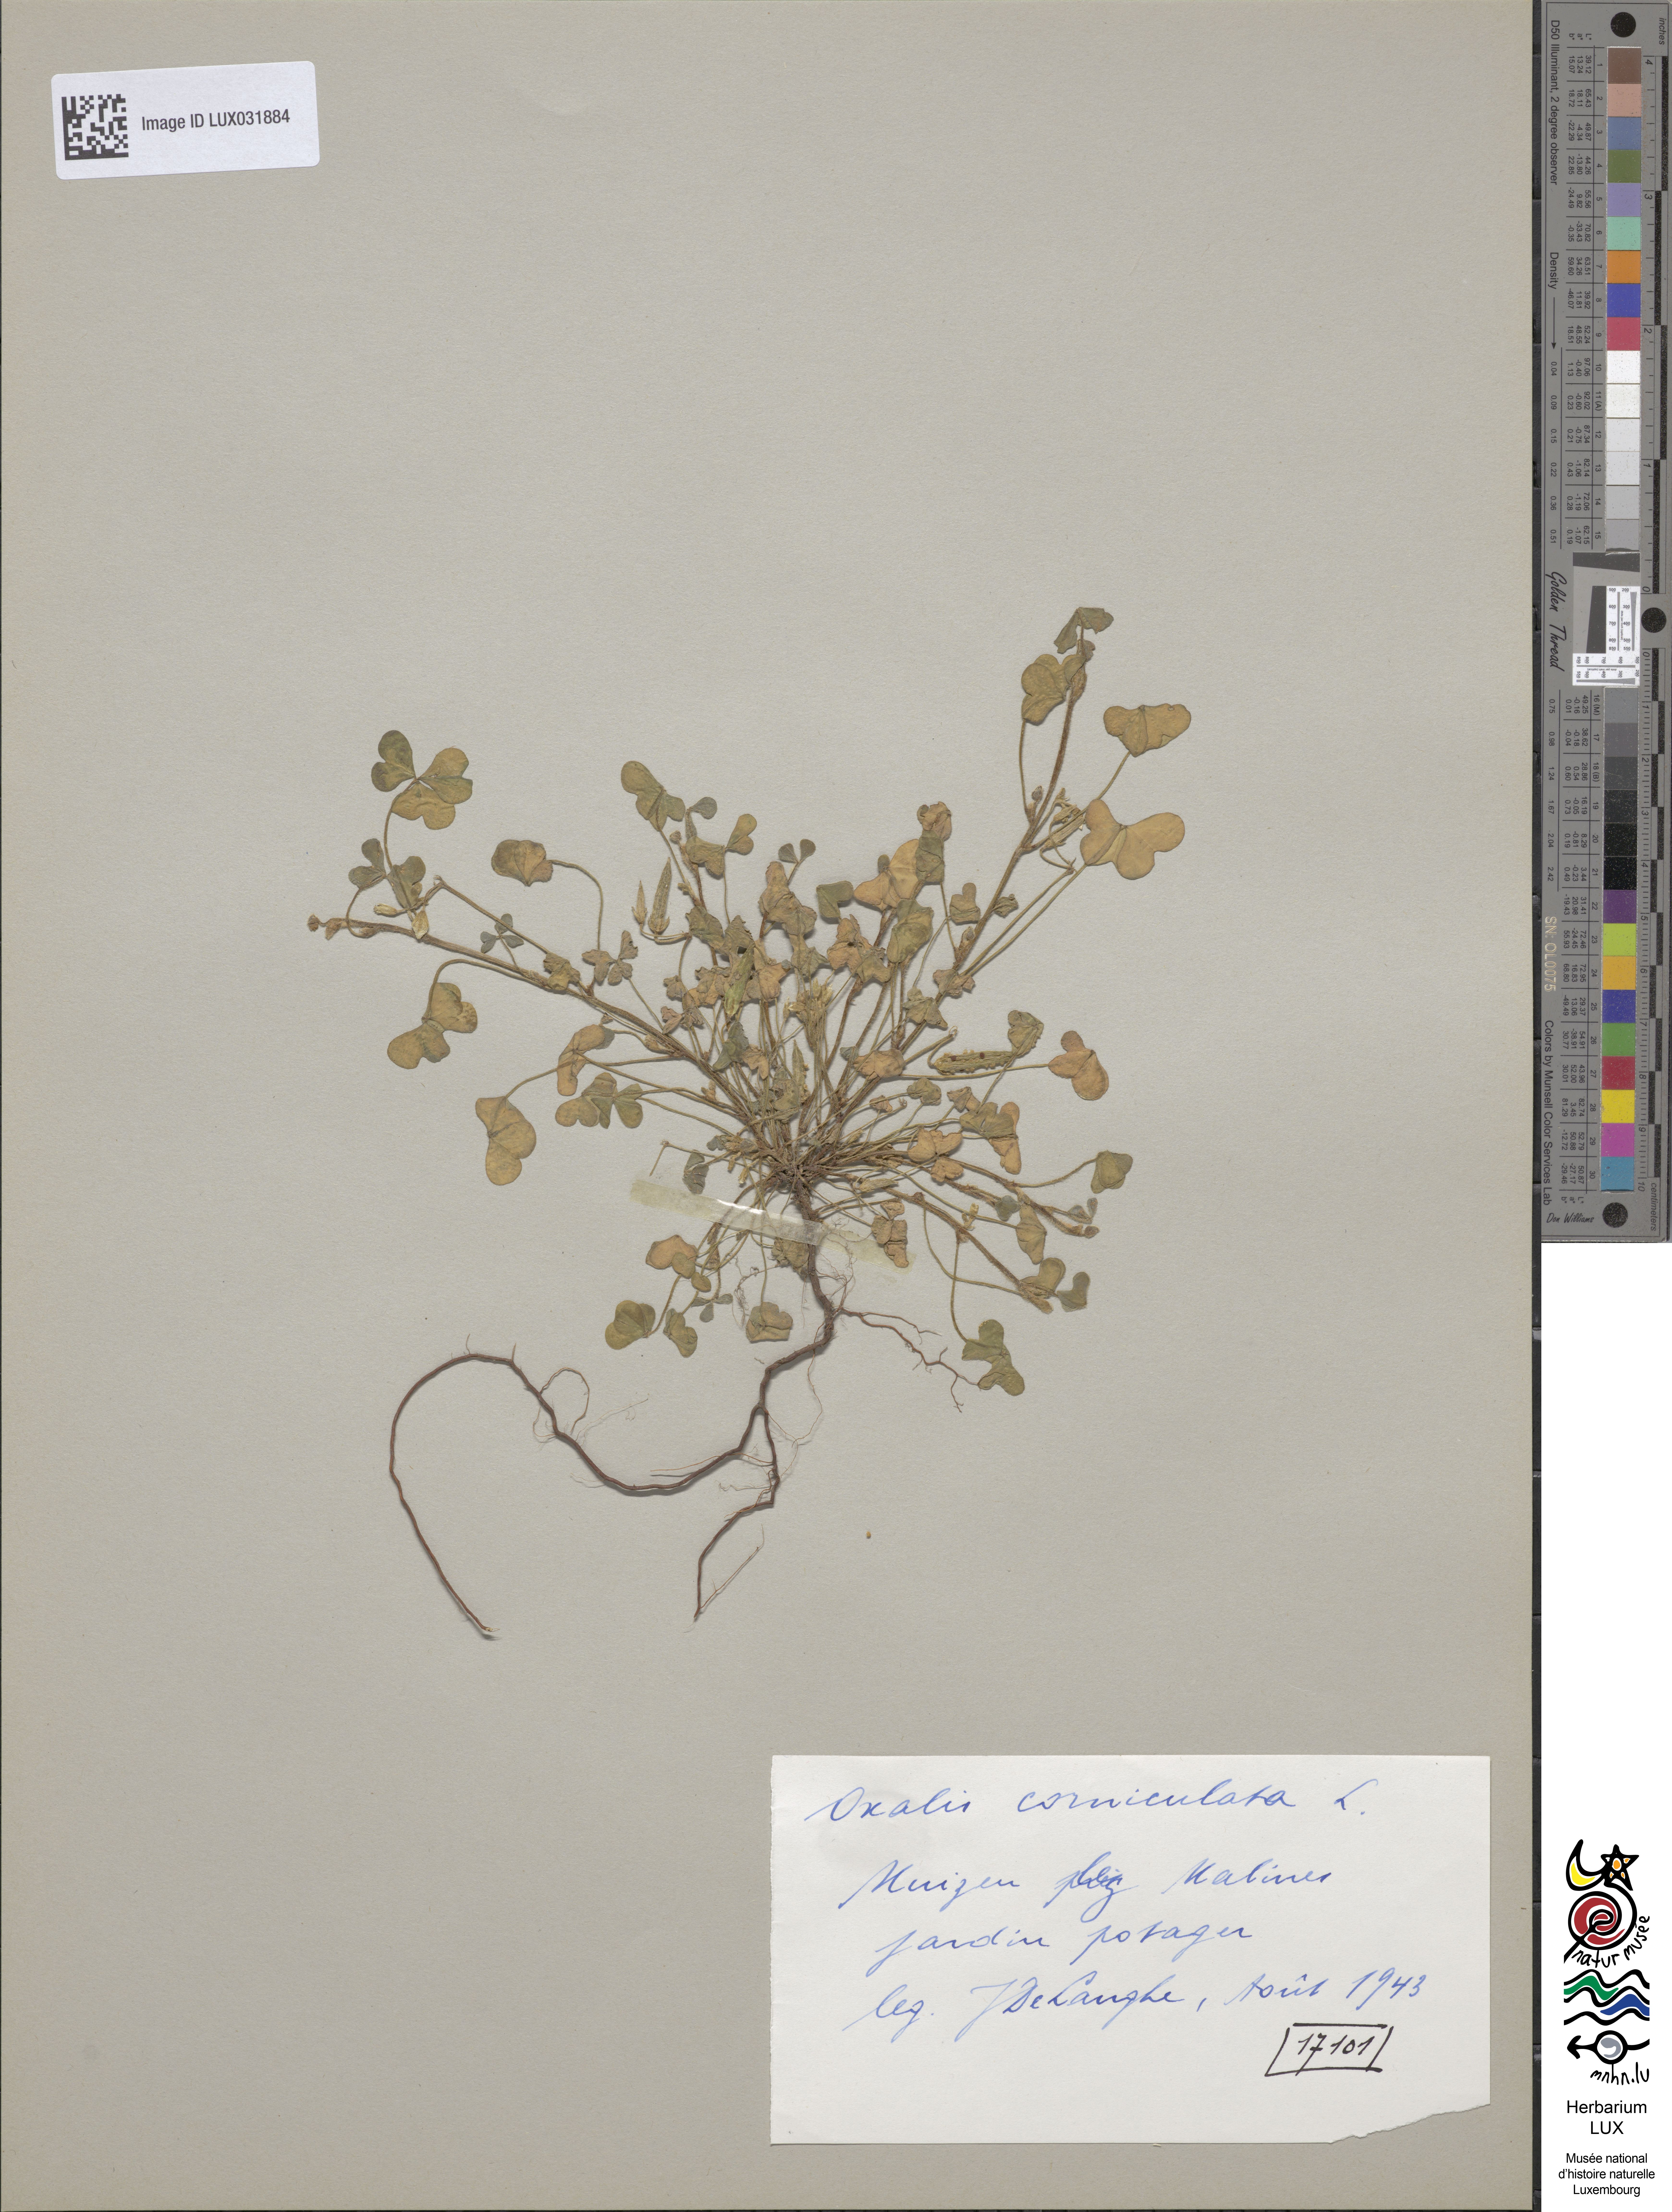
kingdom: Plantae
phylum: Tracheophyta
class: Magnoliopsida
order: Oxalidales
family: Oxalidaceae
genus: Oxalis
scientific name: Oxalis corniculata
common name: Procumbent yellow-sorrel
